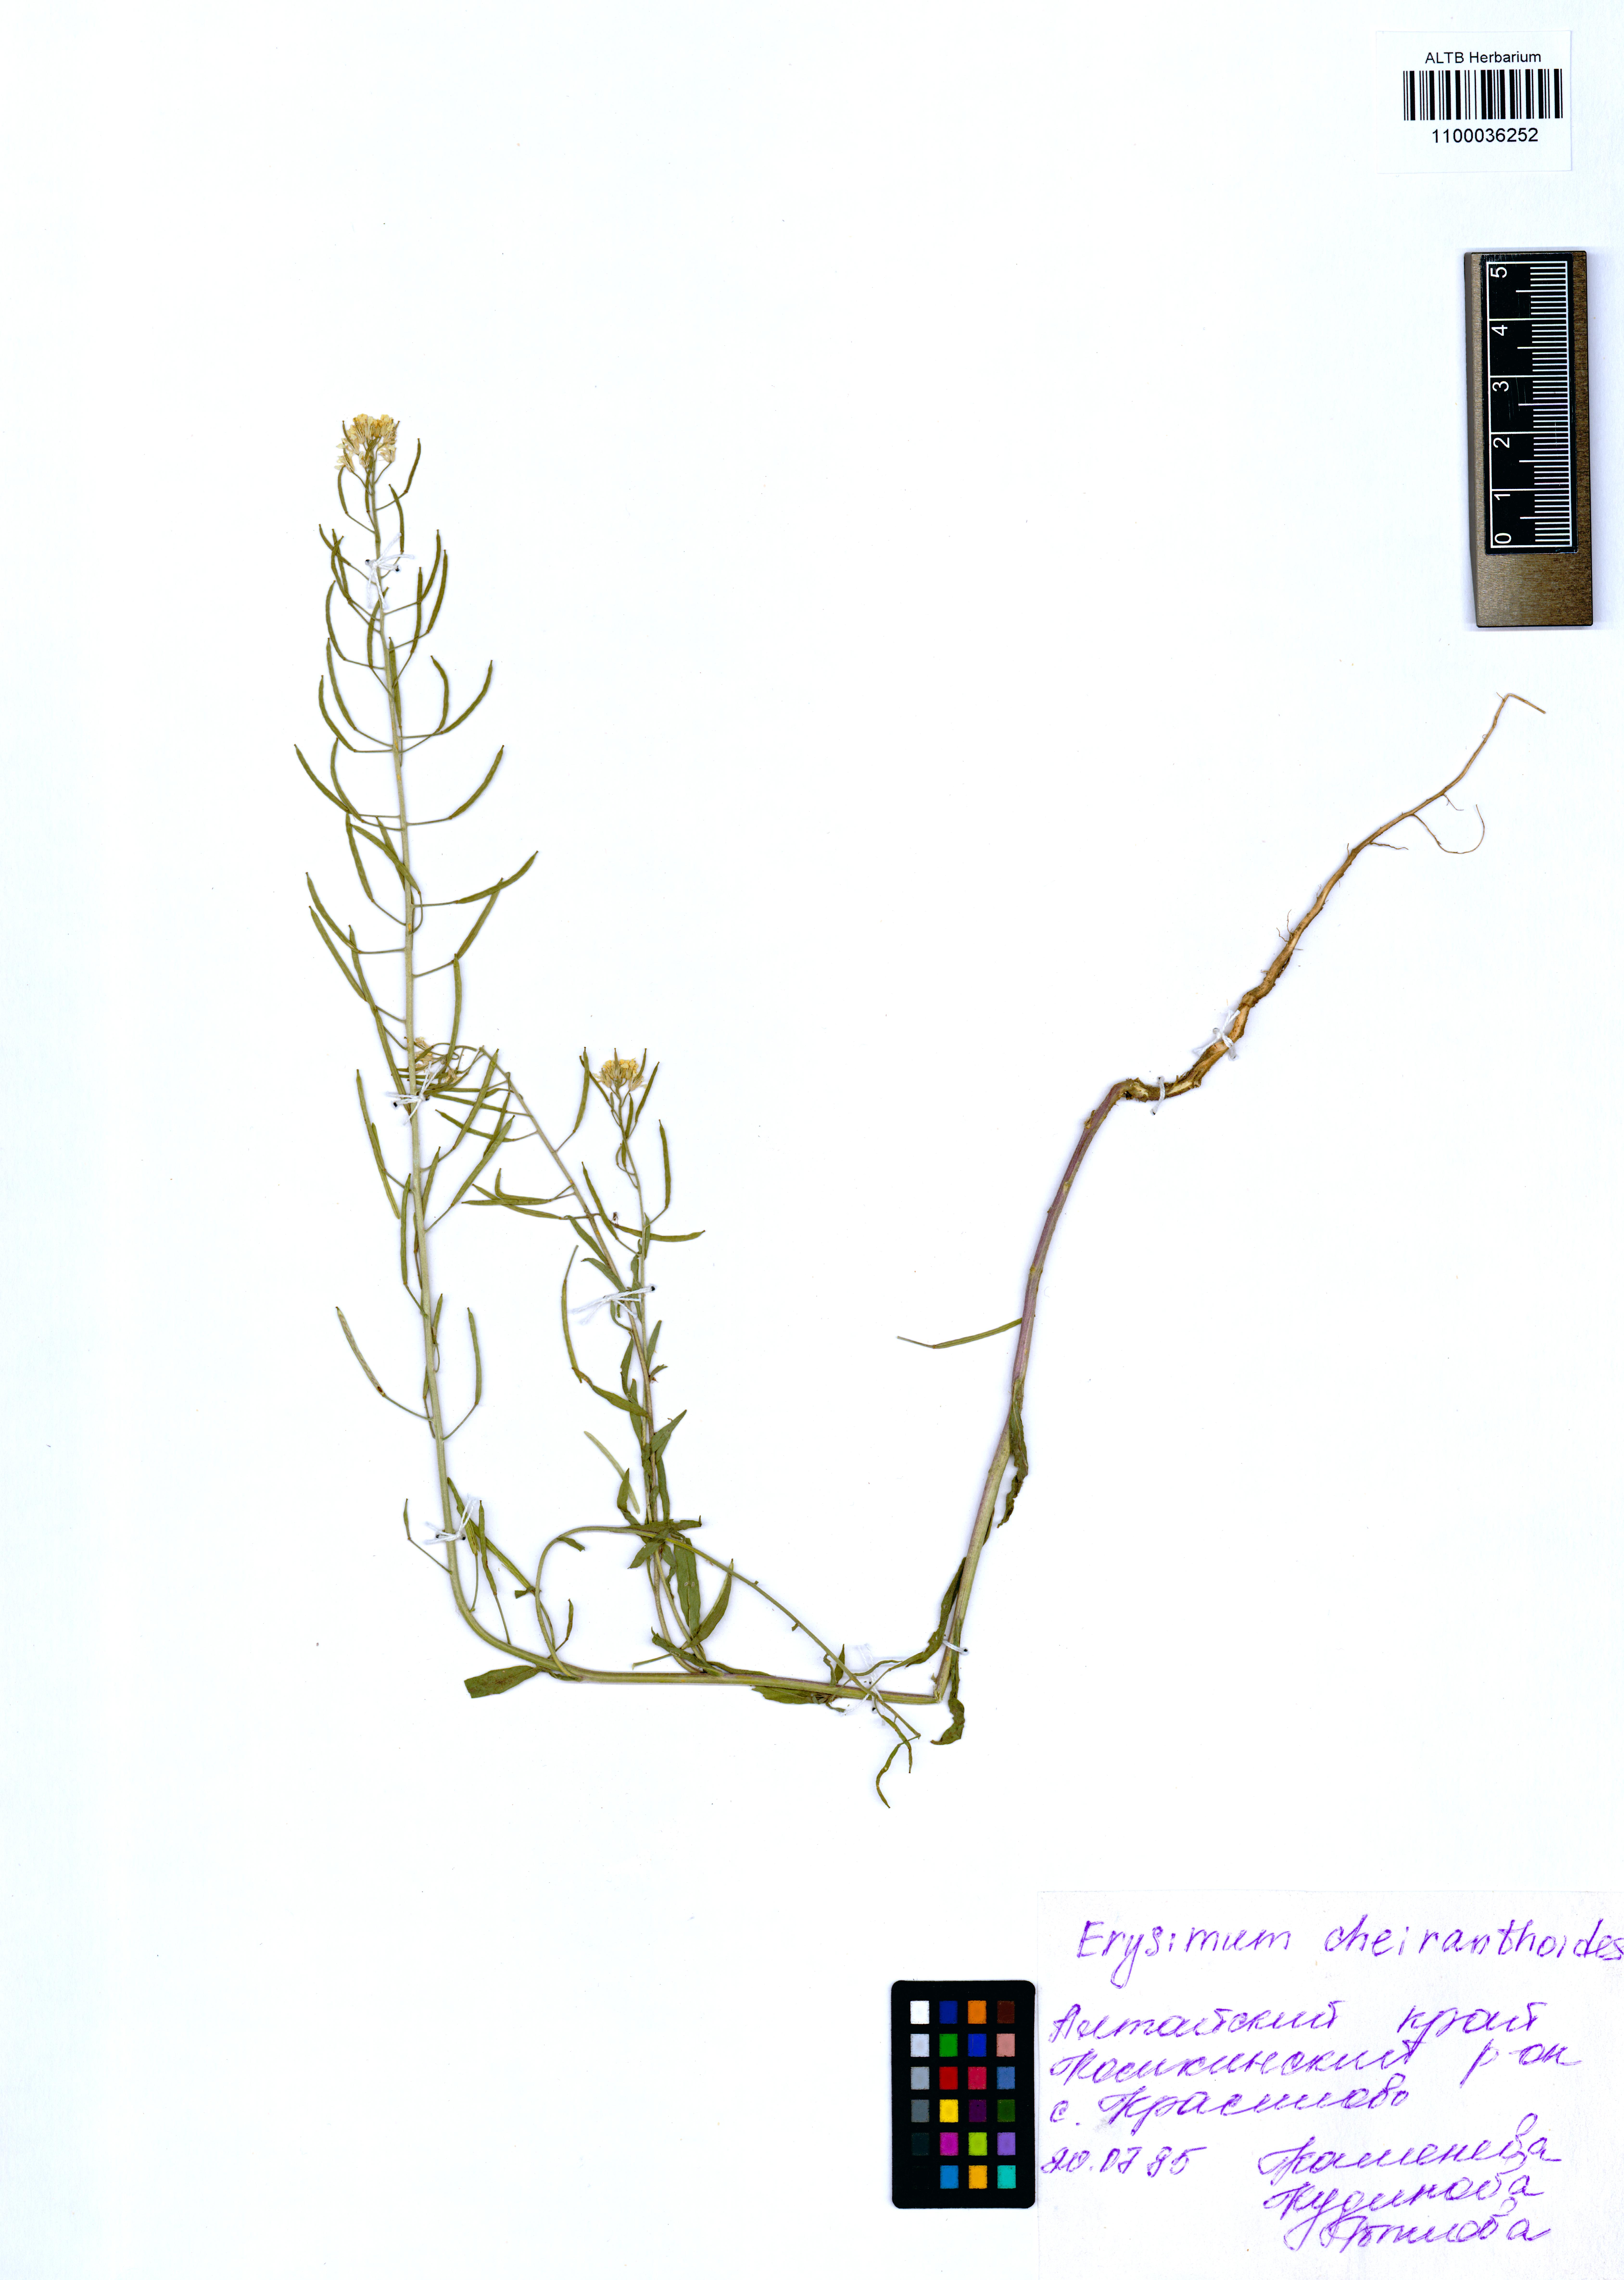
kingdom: Plantae
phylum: Tracheophyta
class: Magnoliopsida
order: Brassicales
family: Brassicaceae
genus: Erysimum
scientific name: Erysimum cheiranthoides
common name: Treacle mustard
